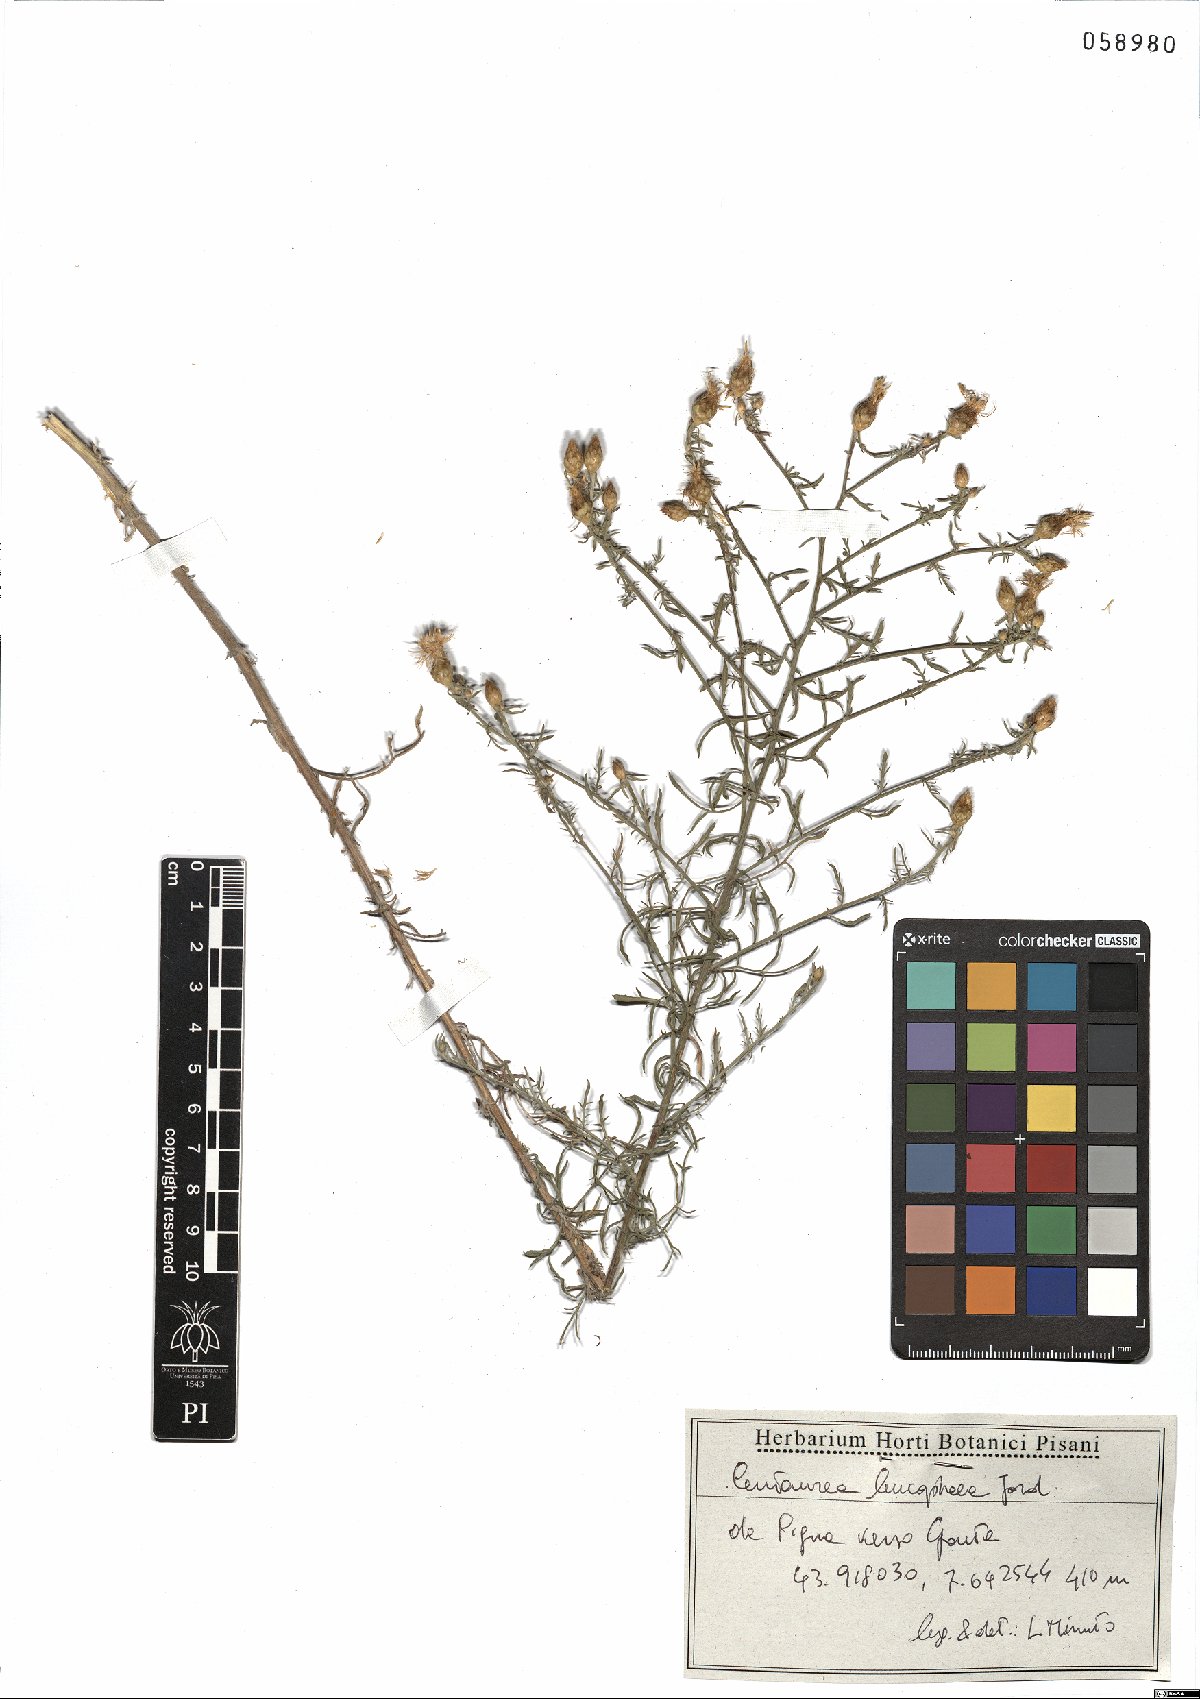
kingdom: Plantae
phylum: Tracheophyta
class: Magnoliopsida
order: Asterales
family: Asteraceae
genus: Centaurea
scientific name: Centaurea leucophaea
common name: Whitish-leaved knapweed
